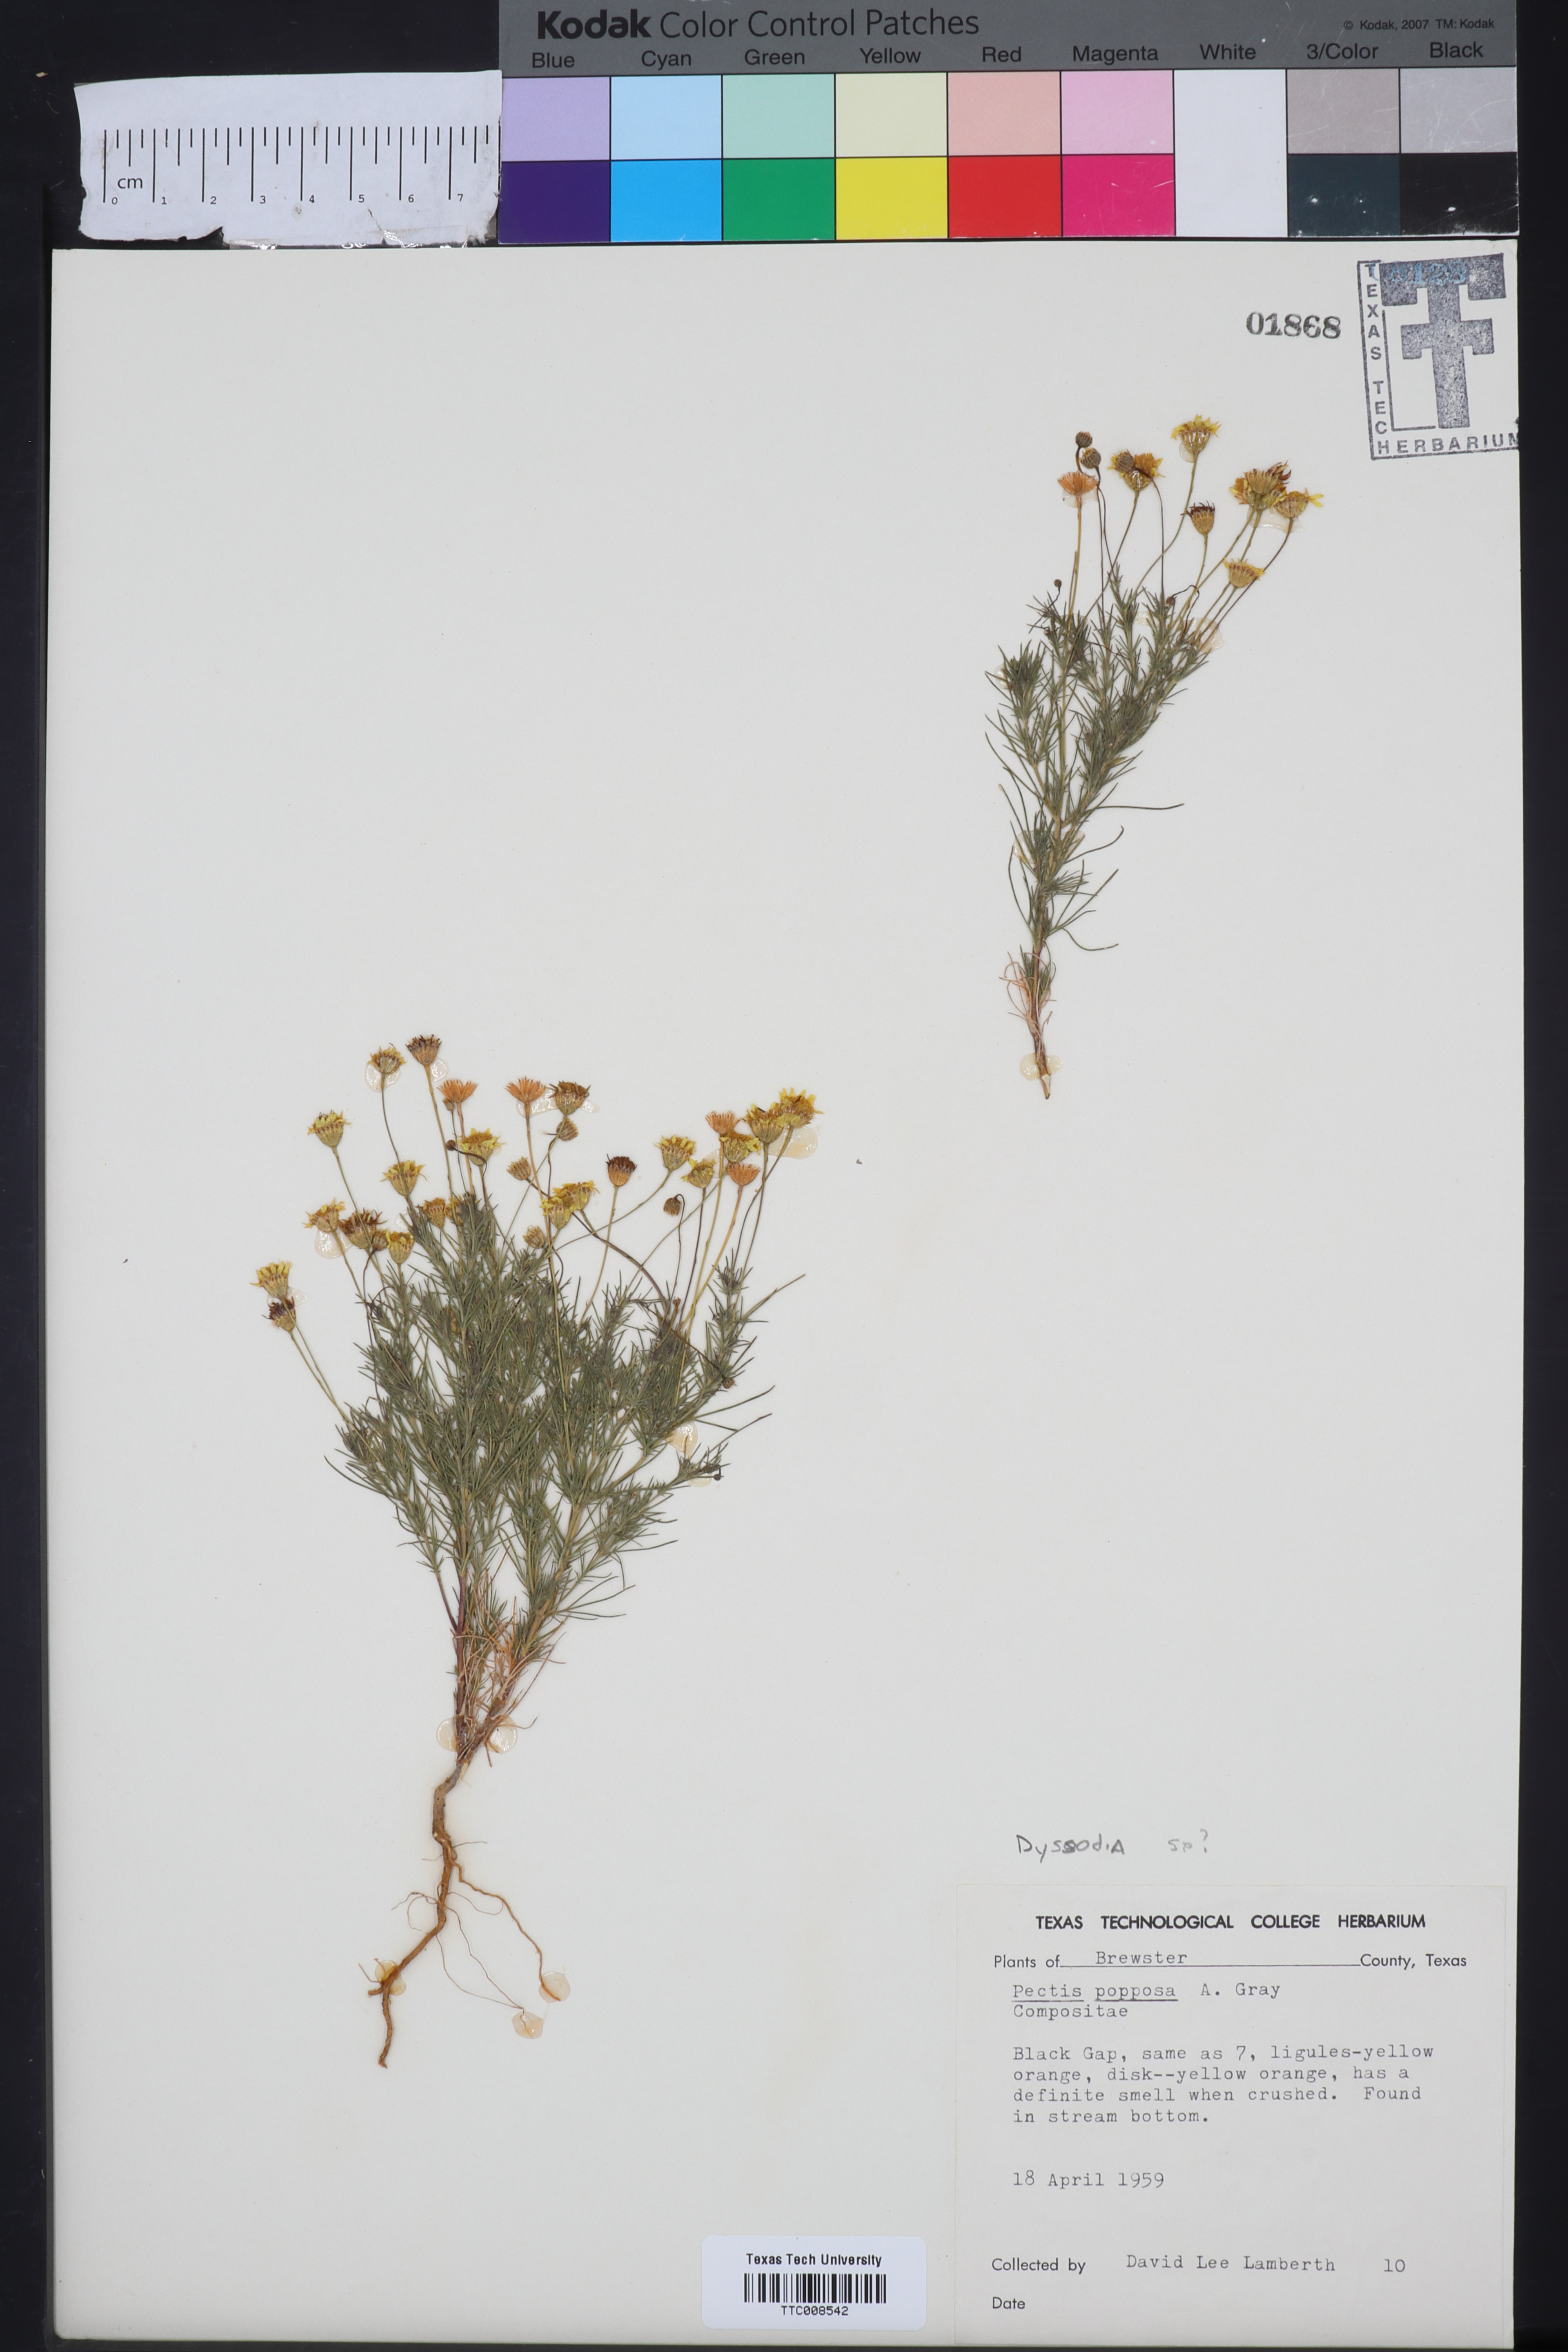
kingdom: Plantae
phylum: Tracheophyta
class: Magnoliopsida
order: Asterales
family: Asteraceae
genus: Dyssodia
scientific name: Dyssodia
